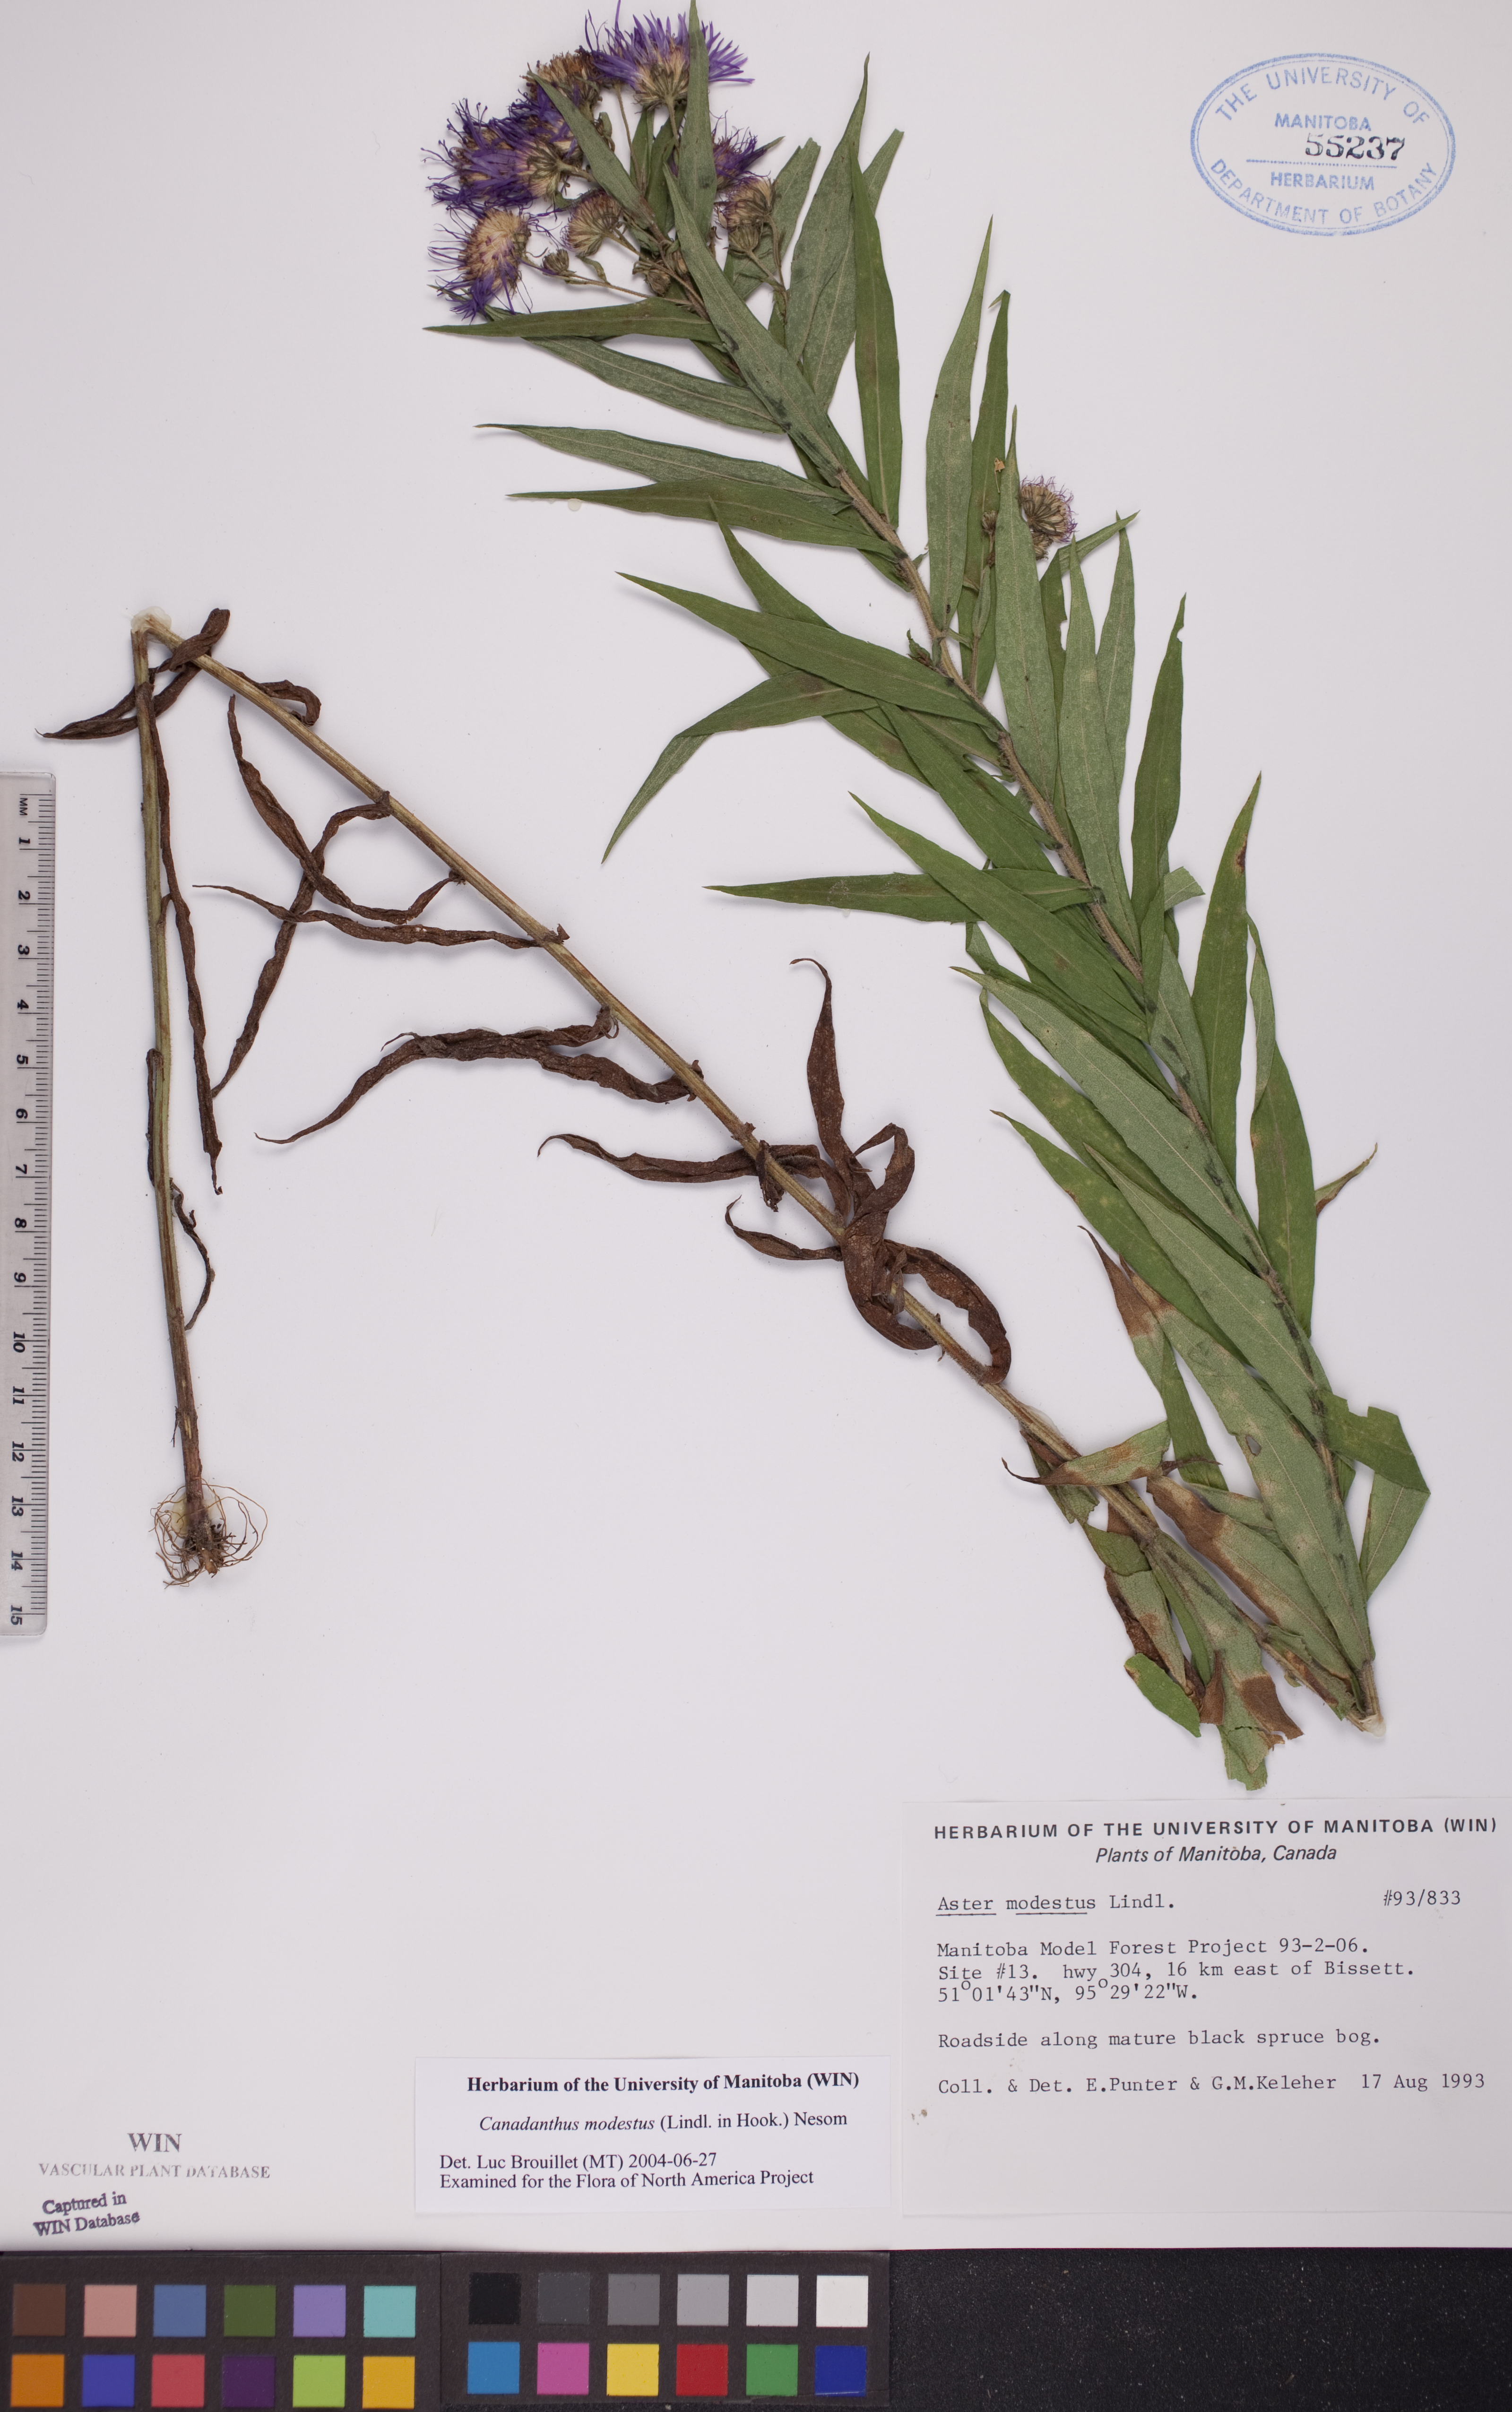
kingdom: Plantae
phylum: Tracheophyta
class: Magnoliopsida
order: Asterales
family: Asteraceae
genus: Canadanthus
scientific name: Canadanthus modestus
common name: Great northern aster
